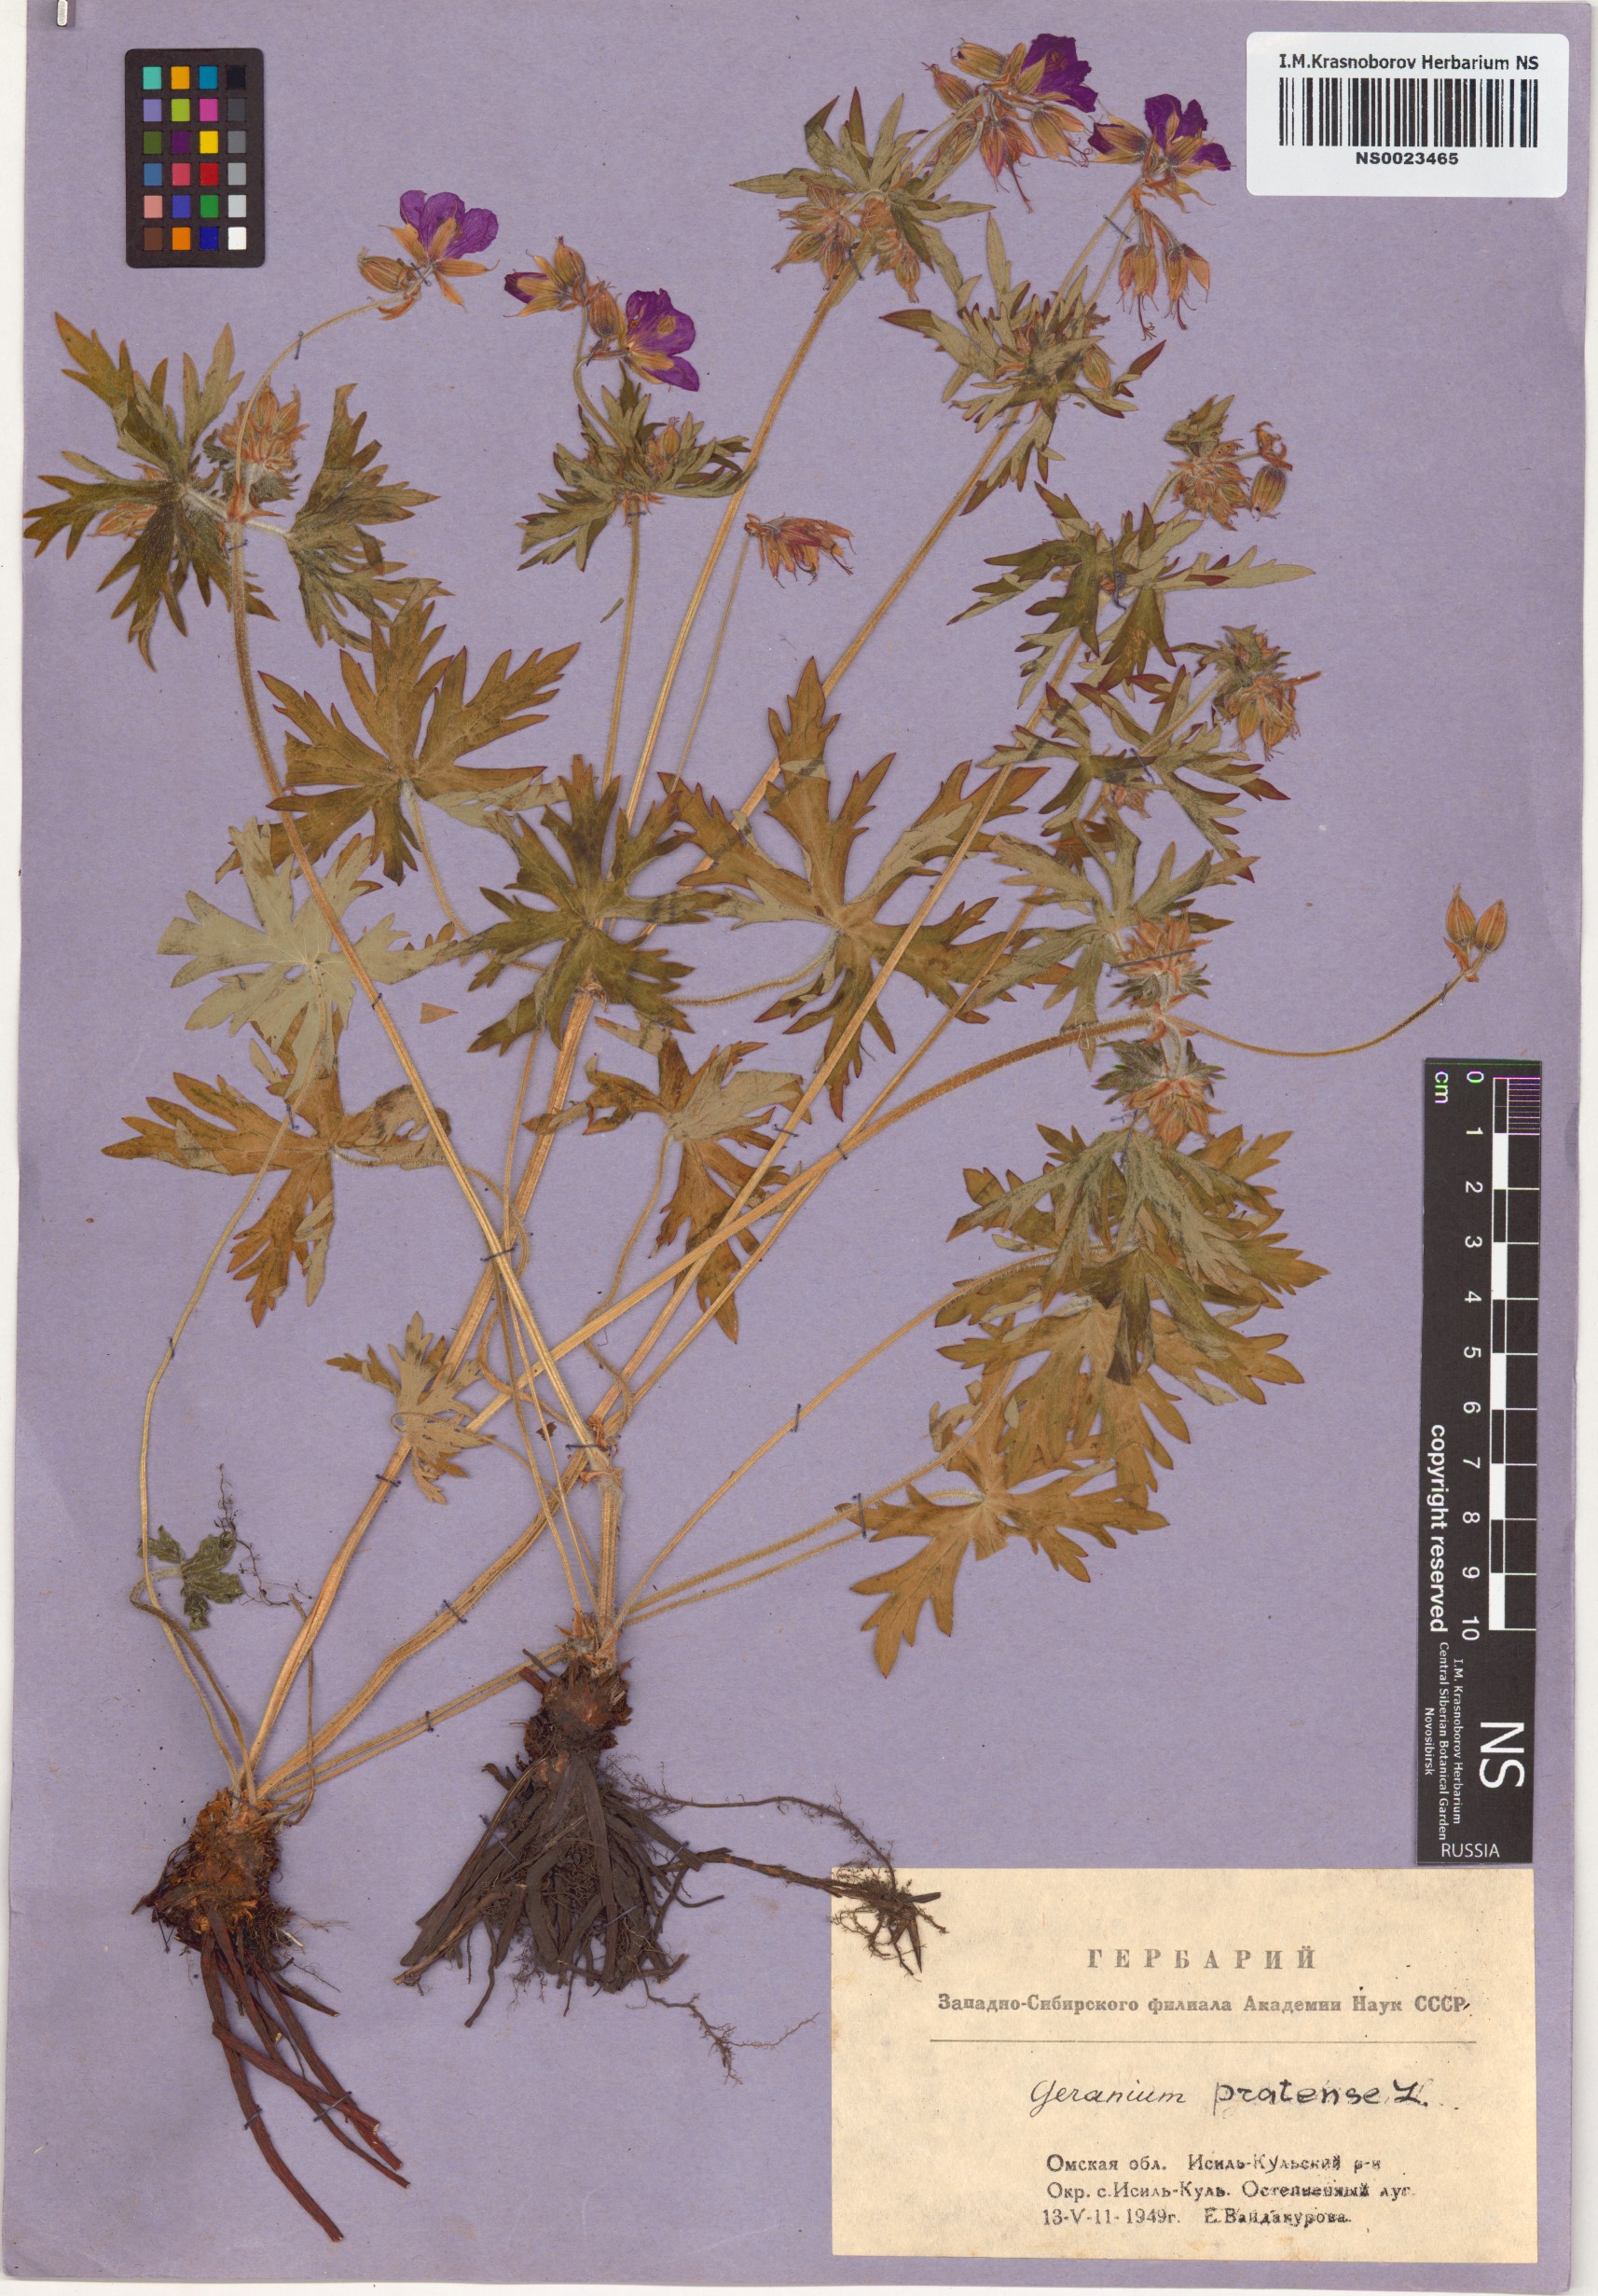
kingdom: Plantae
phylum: Tracheophyta
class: Magnoliopsida
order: Geraniales
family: Geraniaceae
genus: Geranium
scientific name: Geranium pratense
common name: Meadow crane's-bill
